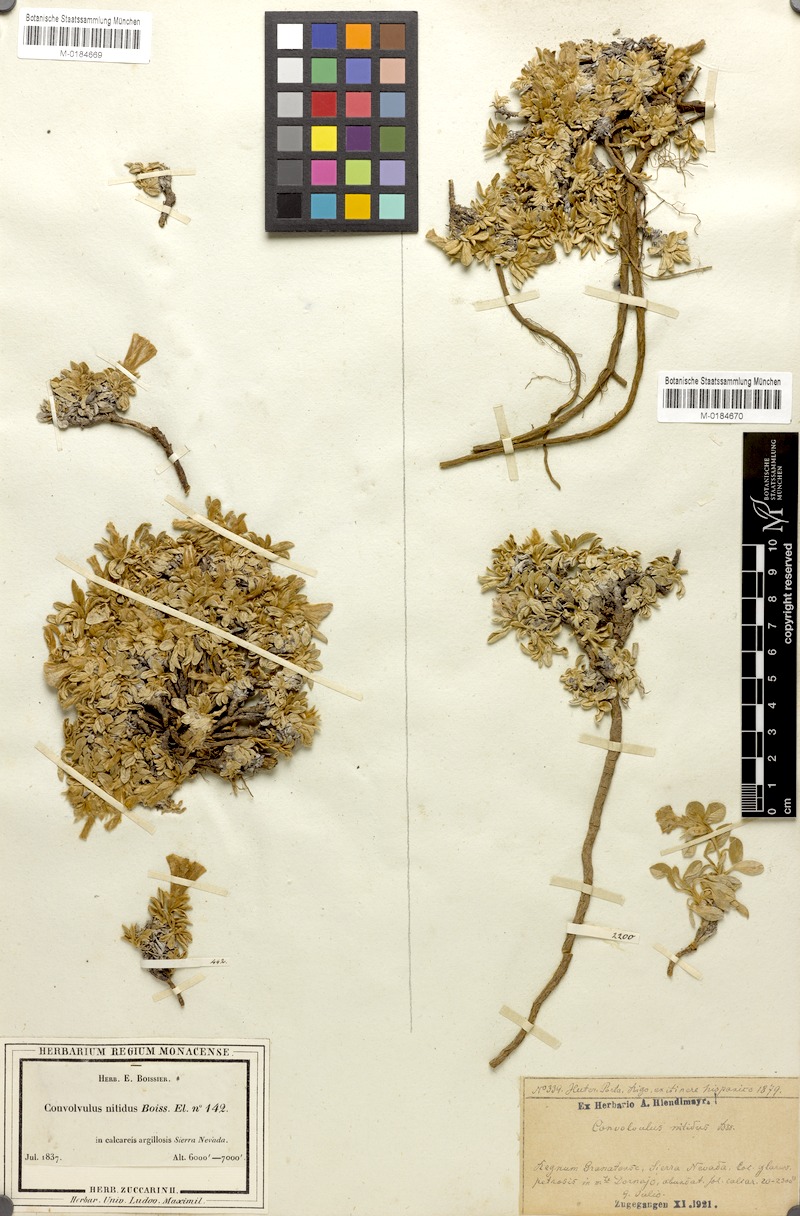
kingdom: Plantae
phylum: Tracheophyta
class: Magnoliopsida
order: Solanales
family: Convolvulaceae
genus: Convolvulus
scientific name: Convolvulus boissieri
